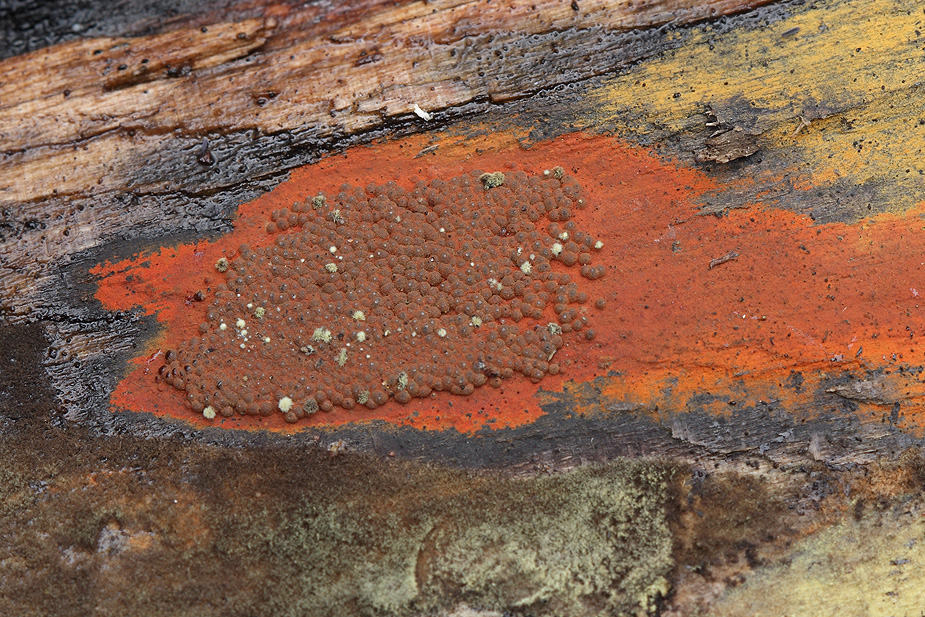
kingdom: Fungi
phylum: Ascomycota
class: Sordariomycetes
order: Xylariales
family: Hypoxylaceae
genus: Hypoxylon
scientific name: Hypoxylon rubiginosum
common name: rustfarvet kulbær
